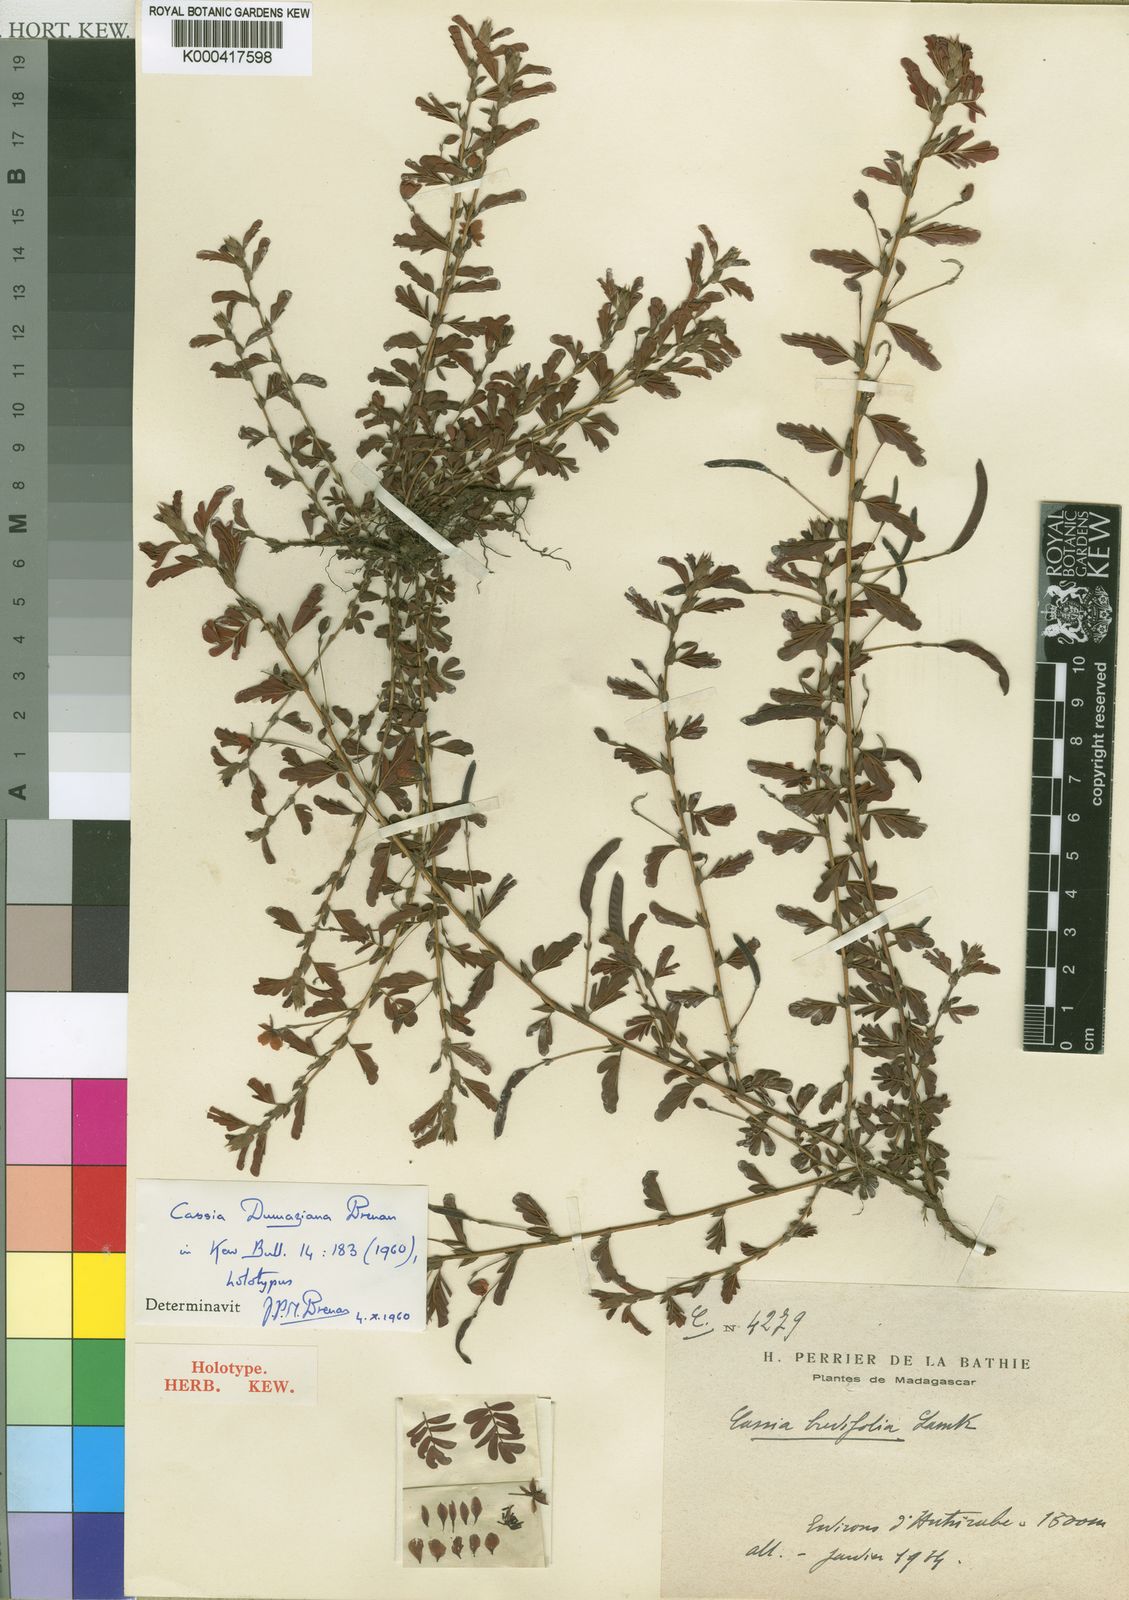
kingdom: Plantae
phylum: Tracheophyta
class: Magnoliopsida
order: Fabales
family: Fabaceae
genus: Chamaecrista
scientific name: Chamaecrista dumaziana
